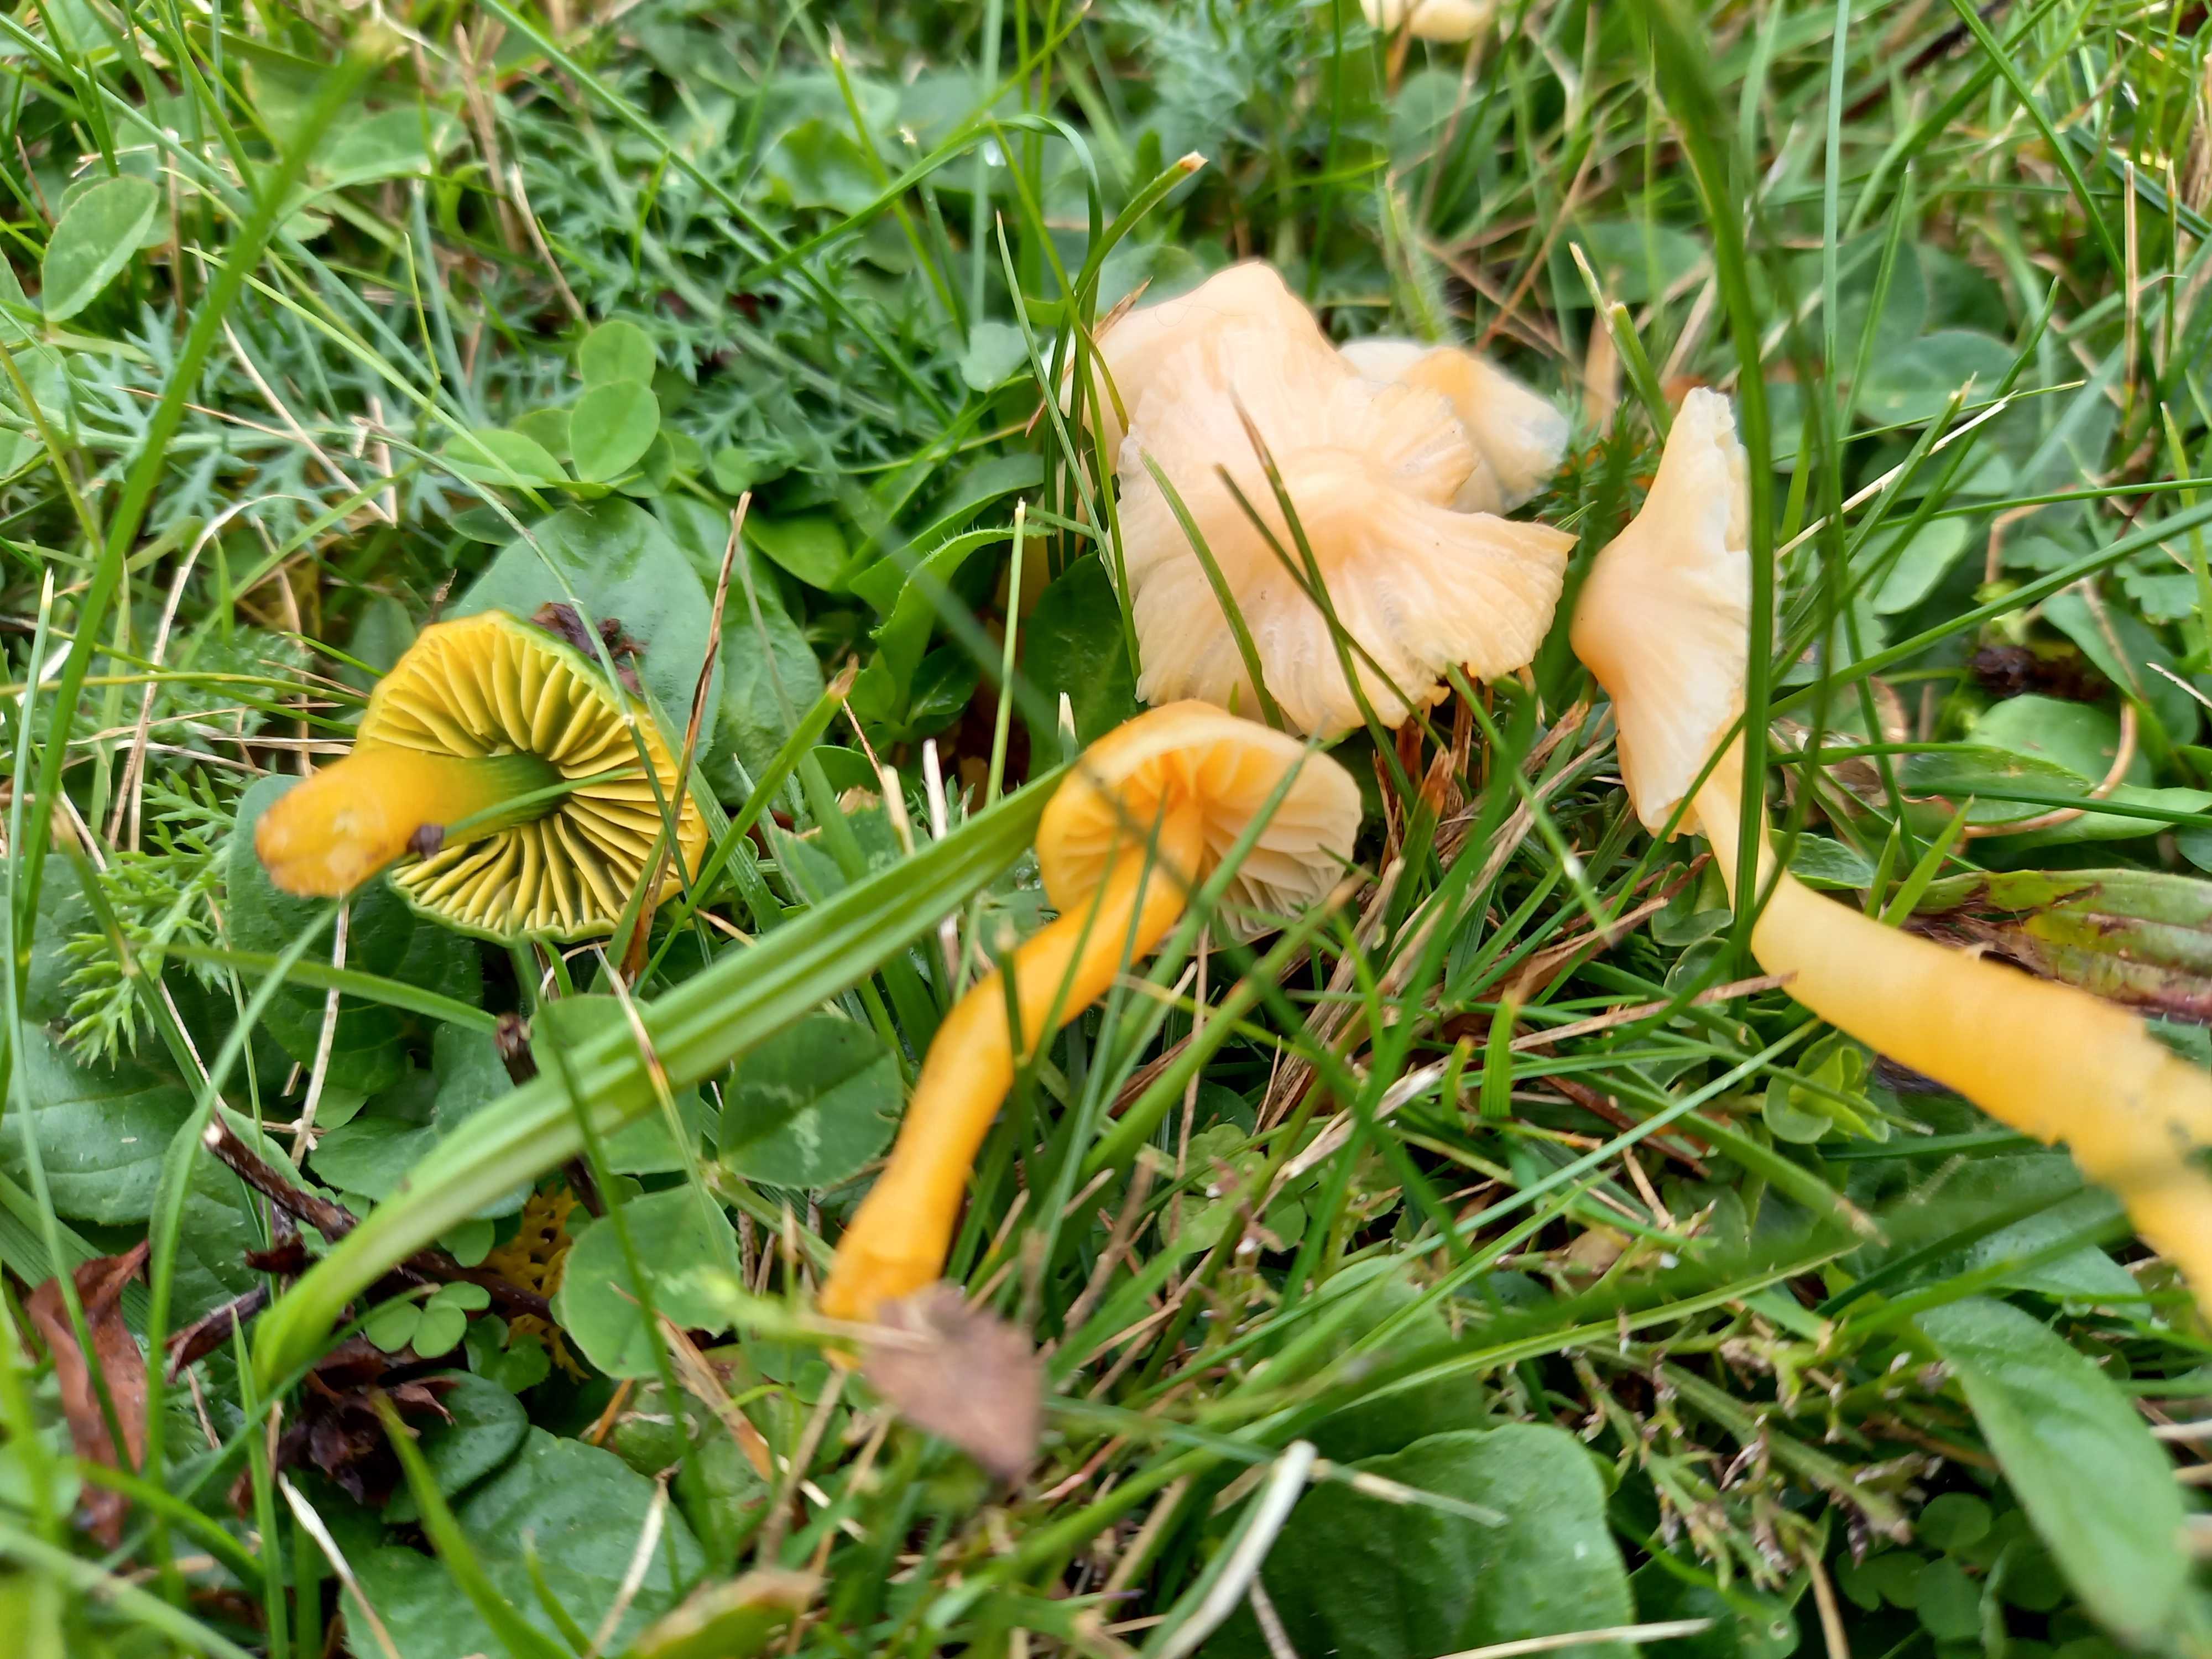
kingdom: Fungi
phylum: Basidiomycota
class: Agaricomycetes
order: Agaricales
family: Hygrophoraceae
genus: Gliophorus
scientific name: Gliophorus psittacinus
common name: papegøje-vokshat
